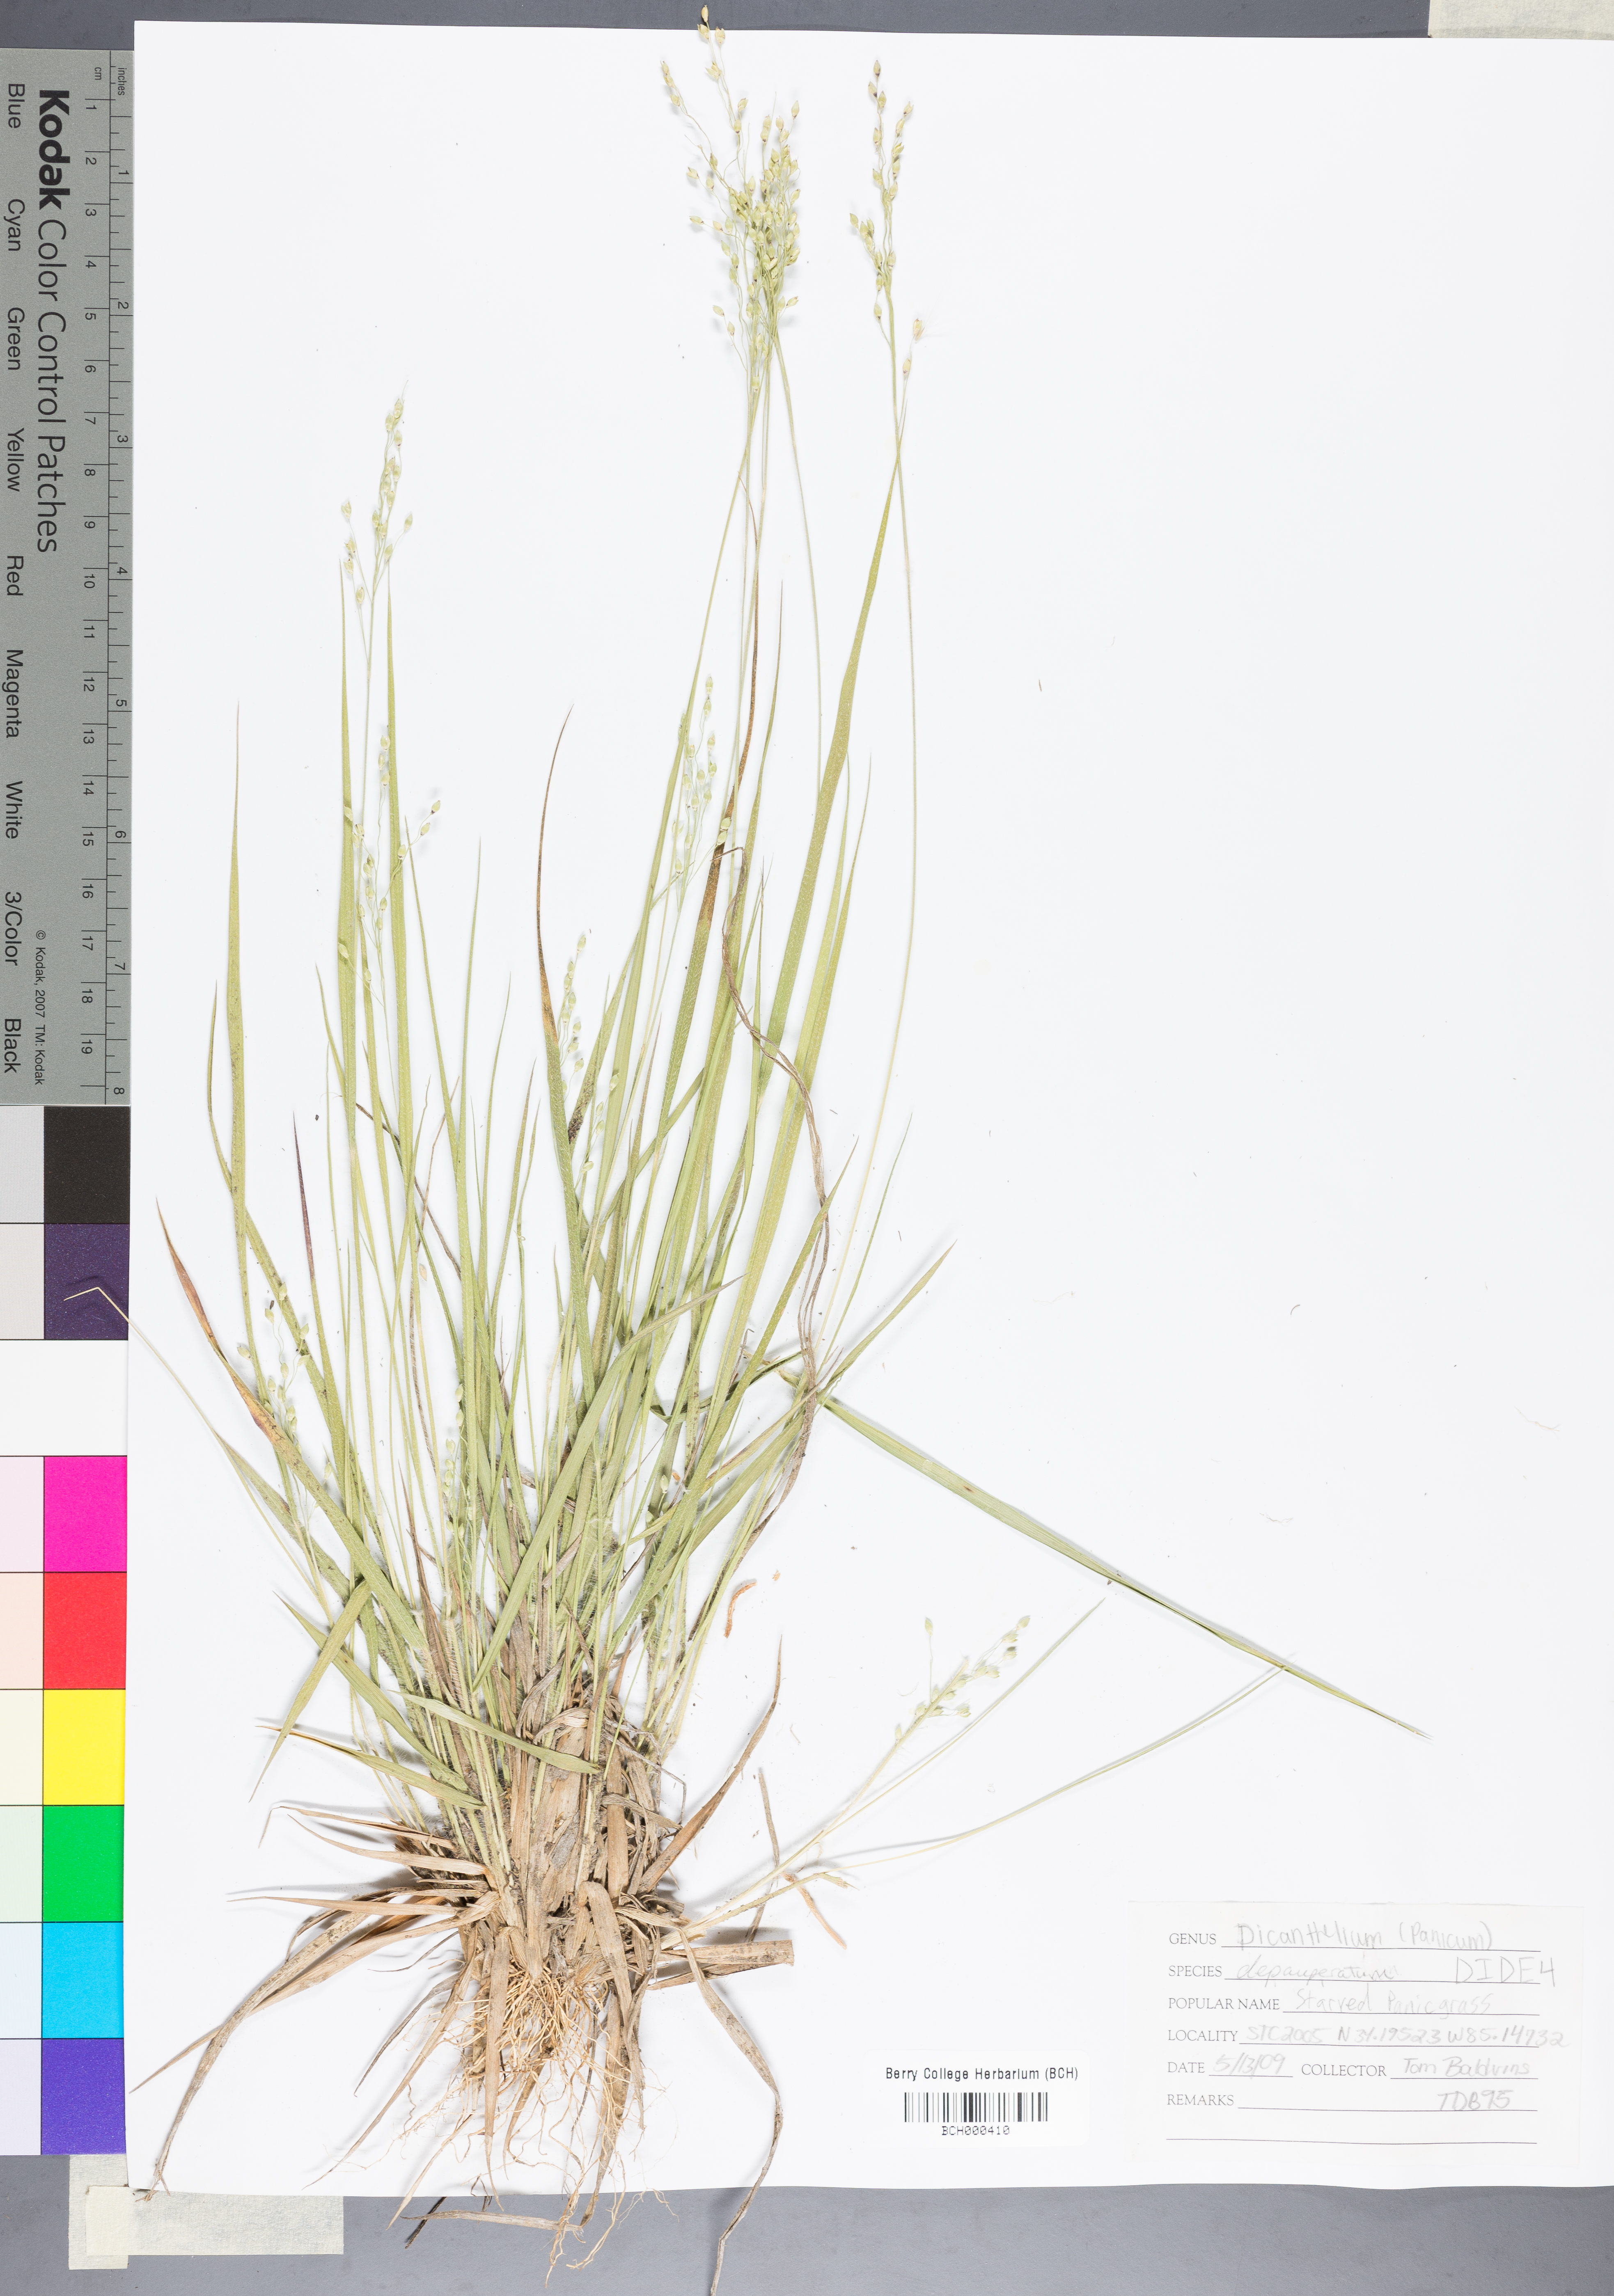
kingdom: Plantae
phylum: Tracheophyta
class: Liliopsida
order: Poales
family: Poaceae
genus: Dichanthelium
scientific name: Dichanthelium depauperatum
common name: Depauperate panicgrass
